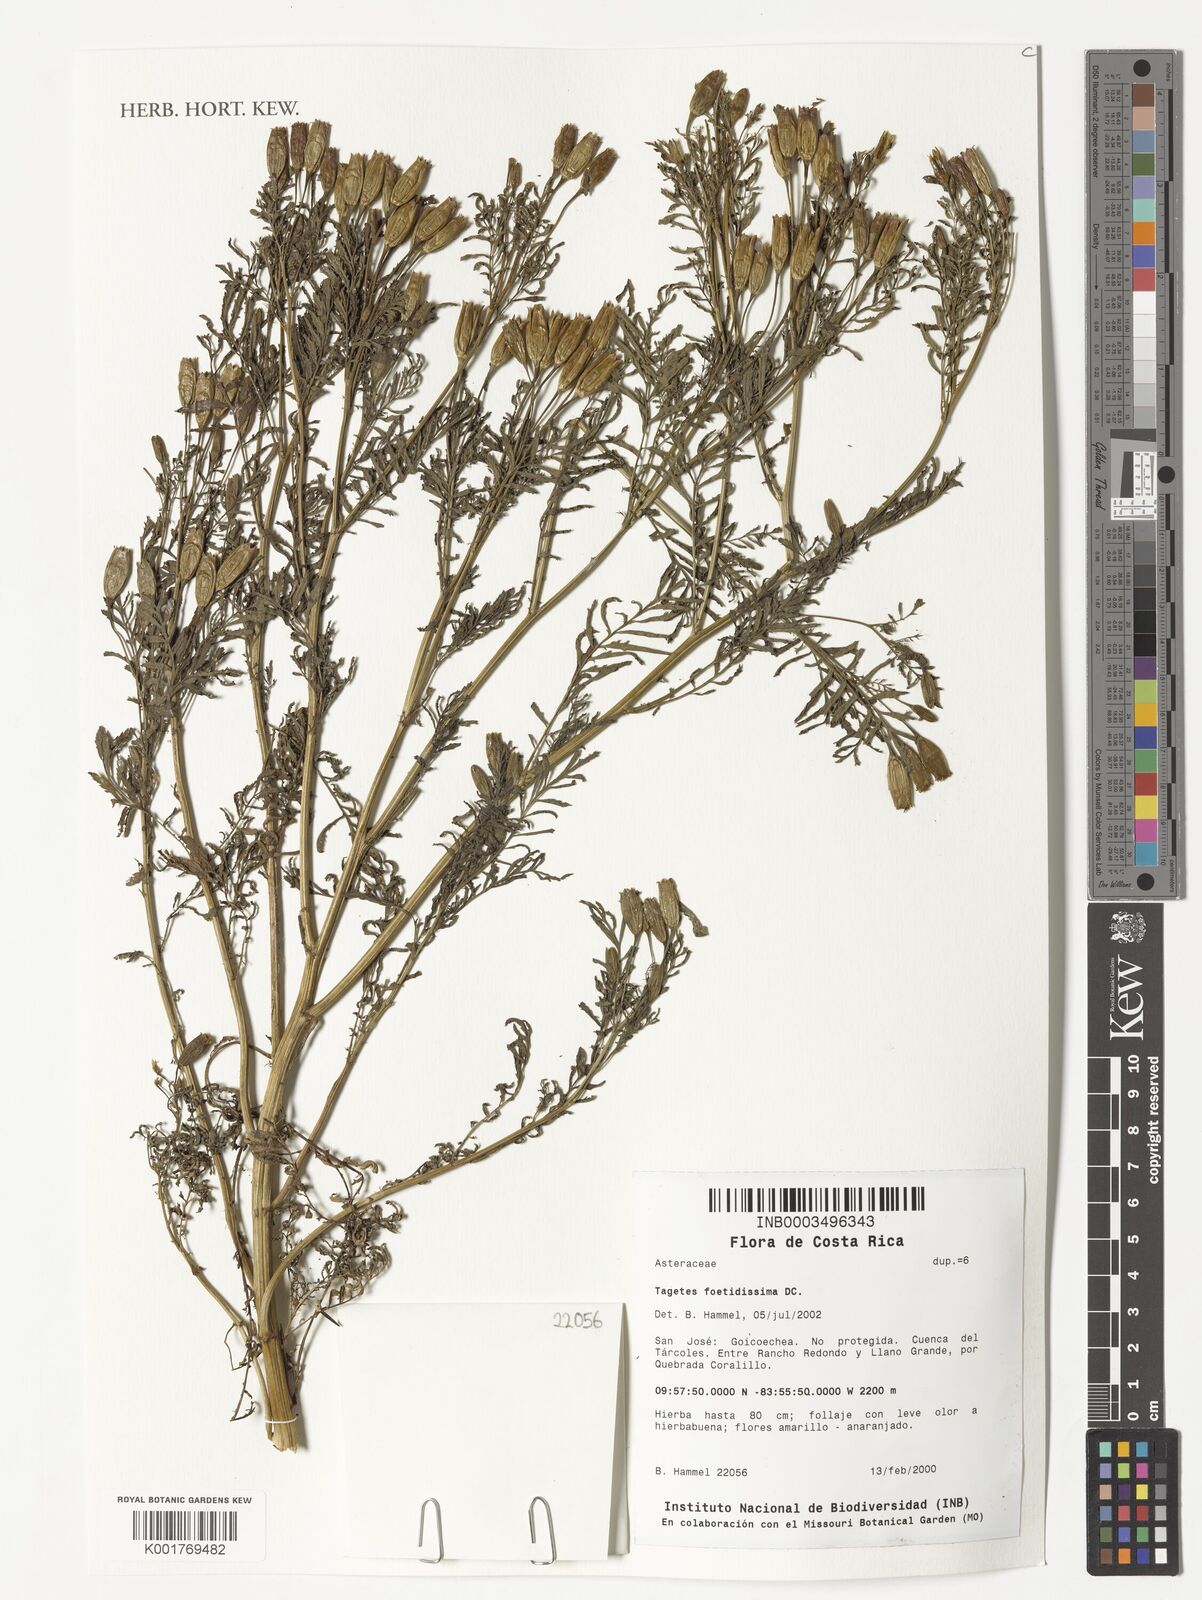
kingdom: Plantae
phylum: Tracheophyta
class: Magnoliopsida
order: Asterales
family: Asteraceae
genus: Tagetes
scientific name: Tagetes foetidissima
